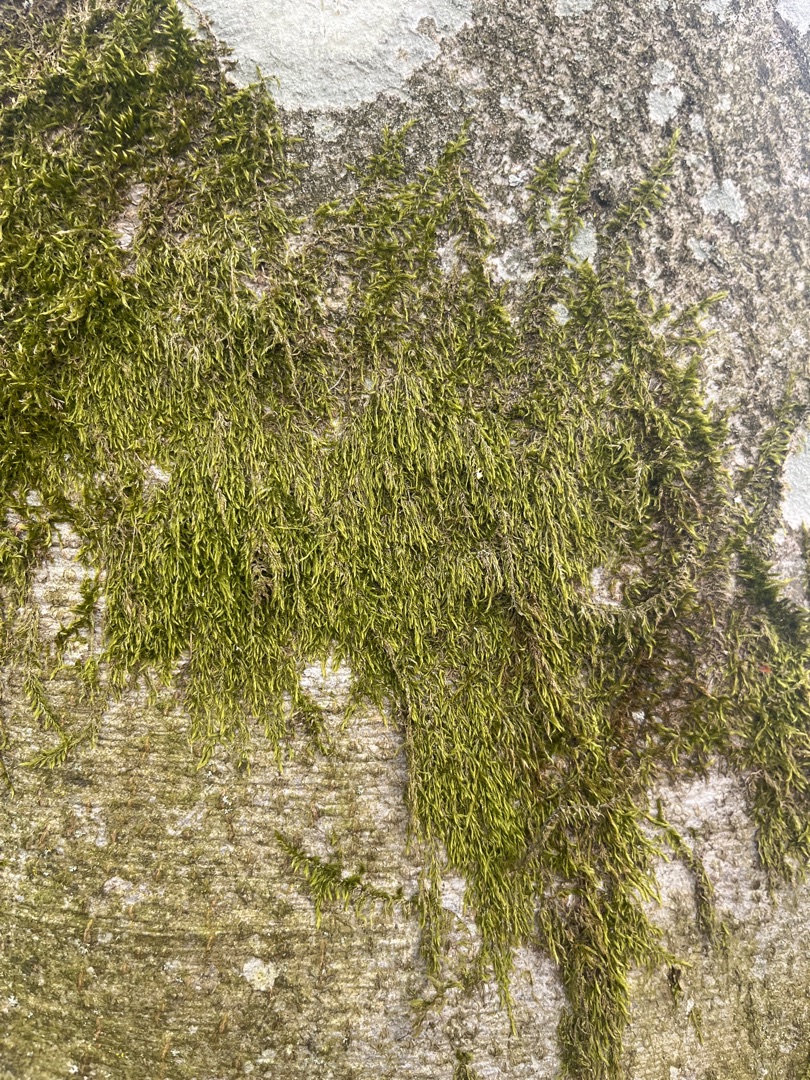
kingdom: Plantae
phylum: Bryophyta
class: Bryopsida
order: Hypnales
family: Hypnaceae
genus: Hypnum
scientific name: Hypnum
